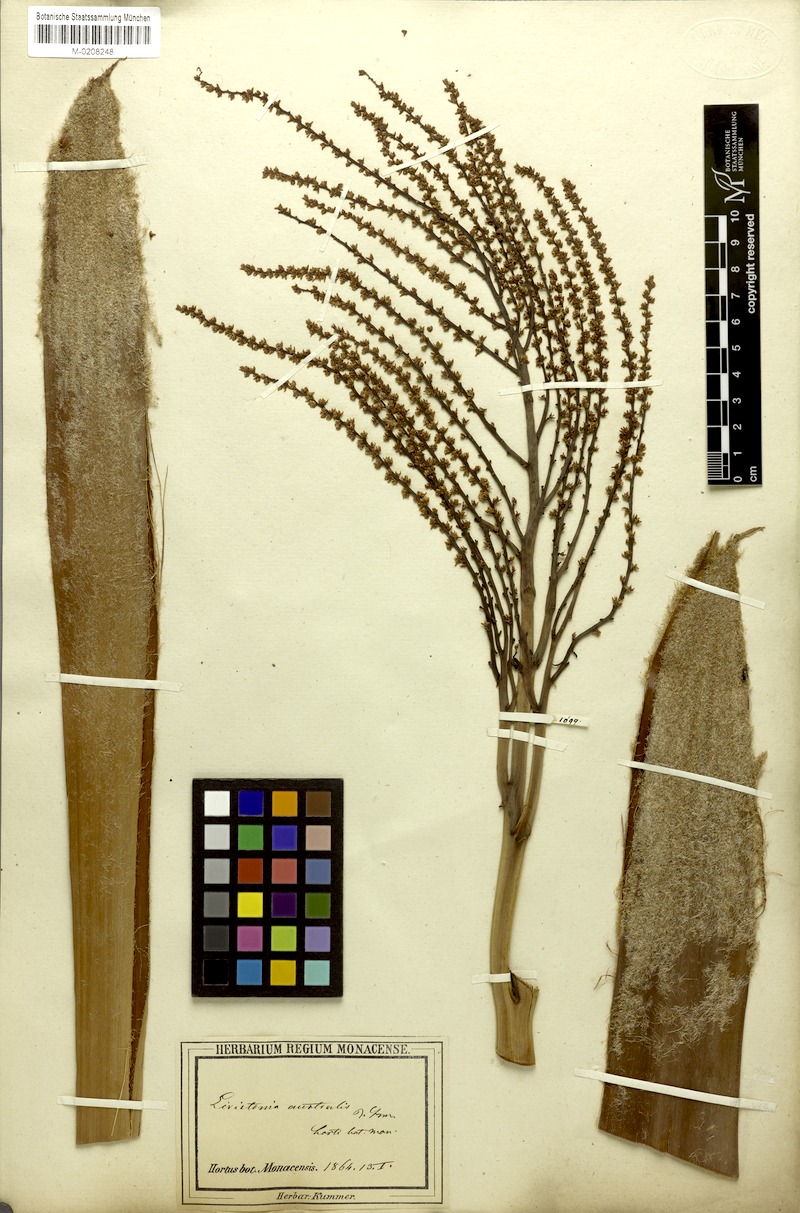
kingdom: Plantae
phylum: Tracheophyta
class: Liliopsida
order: Arecales
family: Arecaceae
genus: Livistona
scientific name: Livistona australis
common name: Cabbage fan palm
